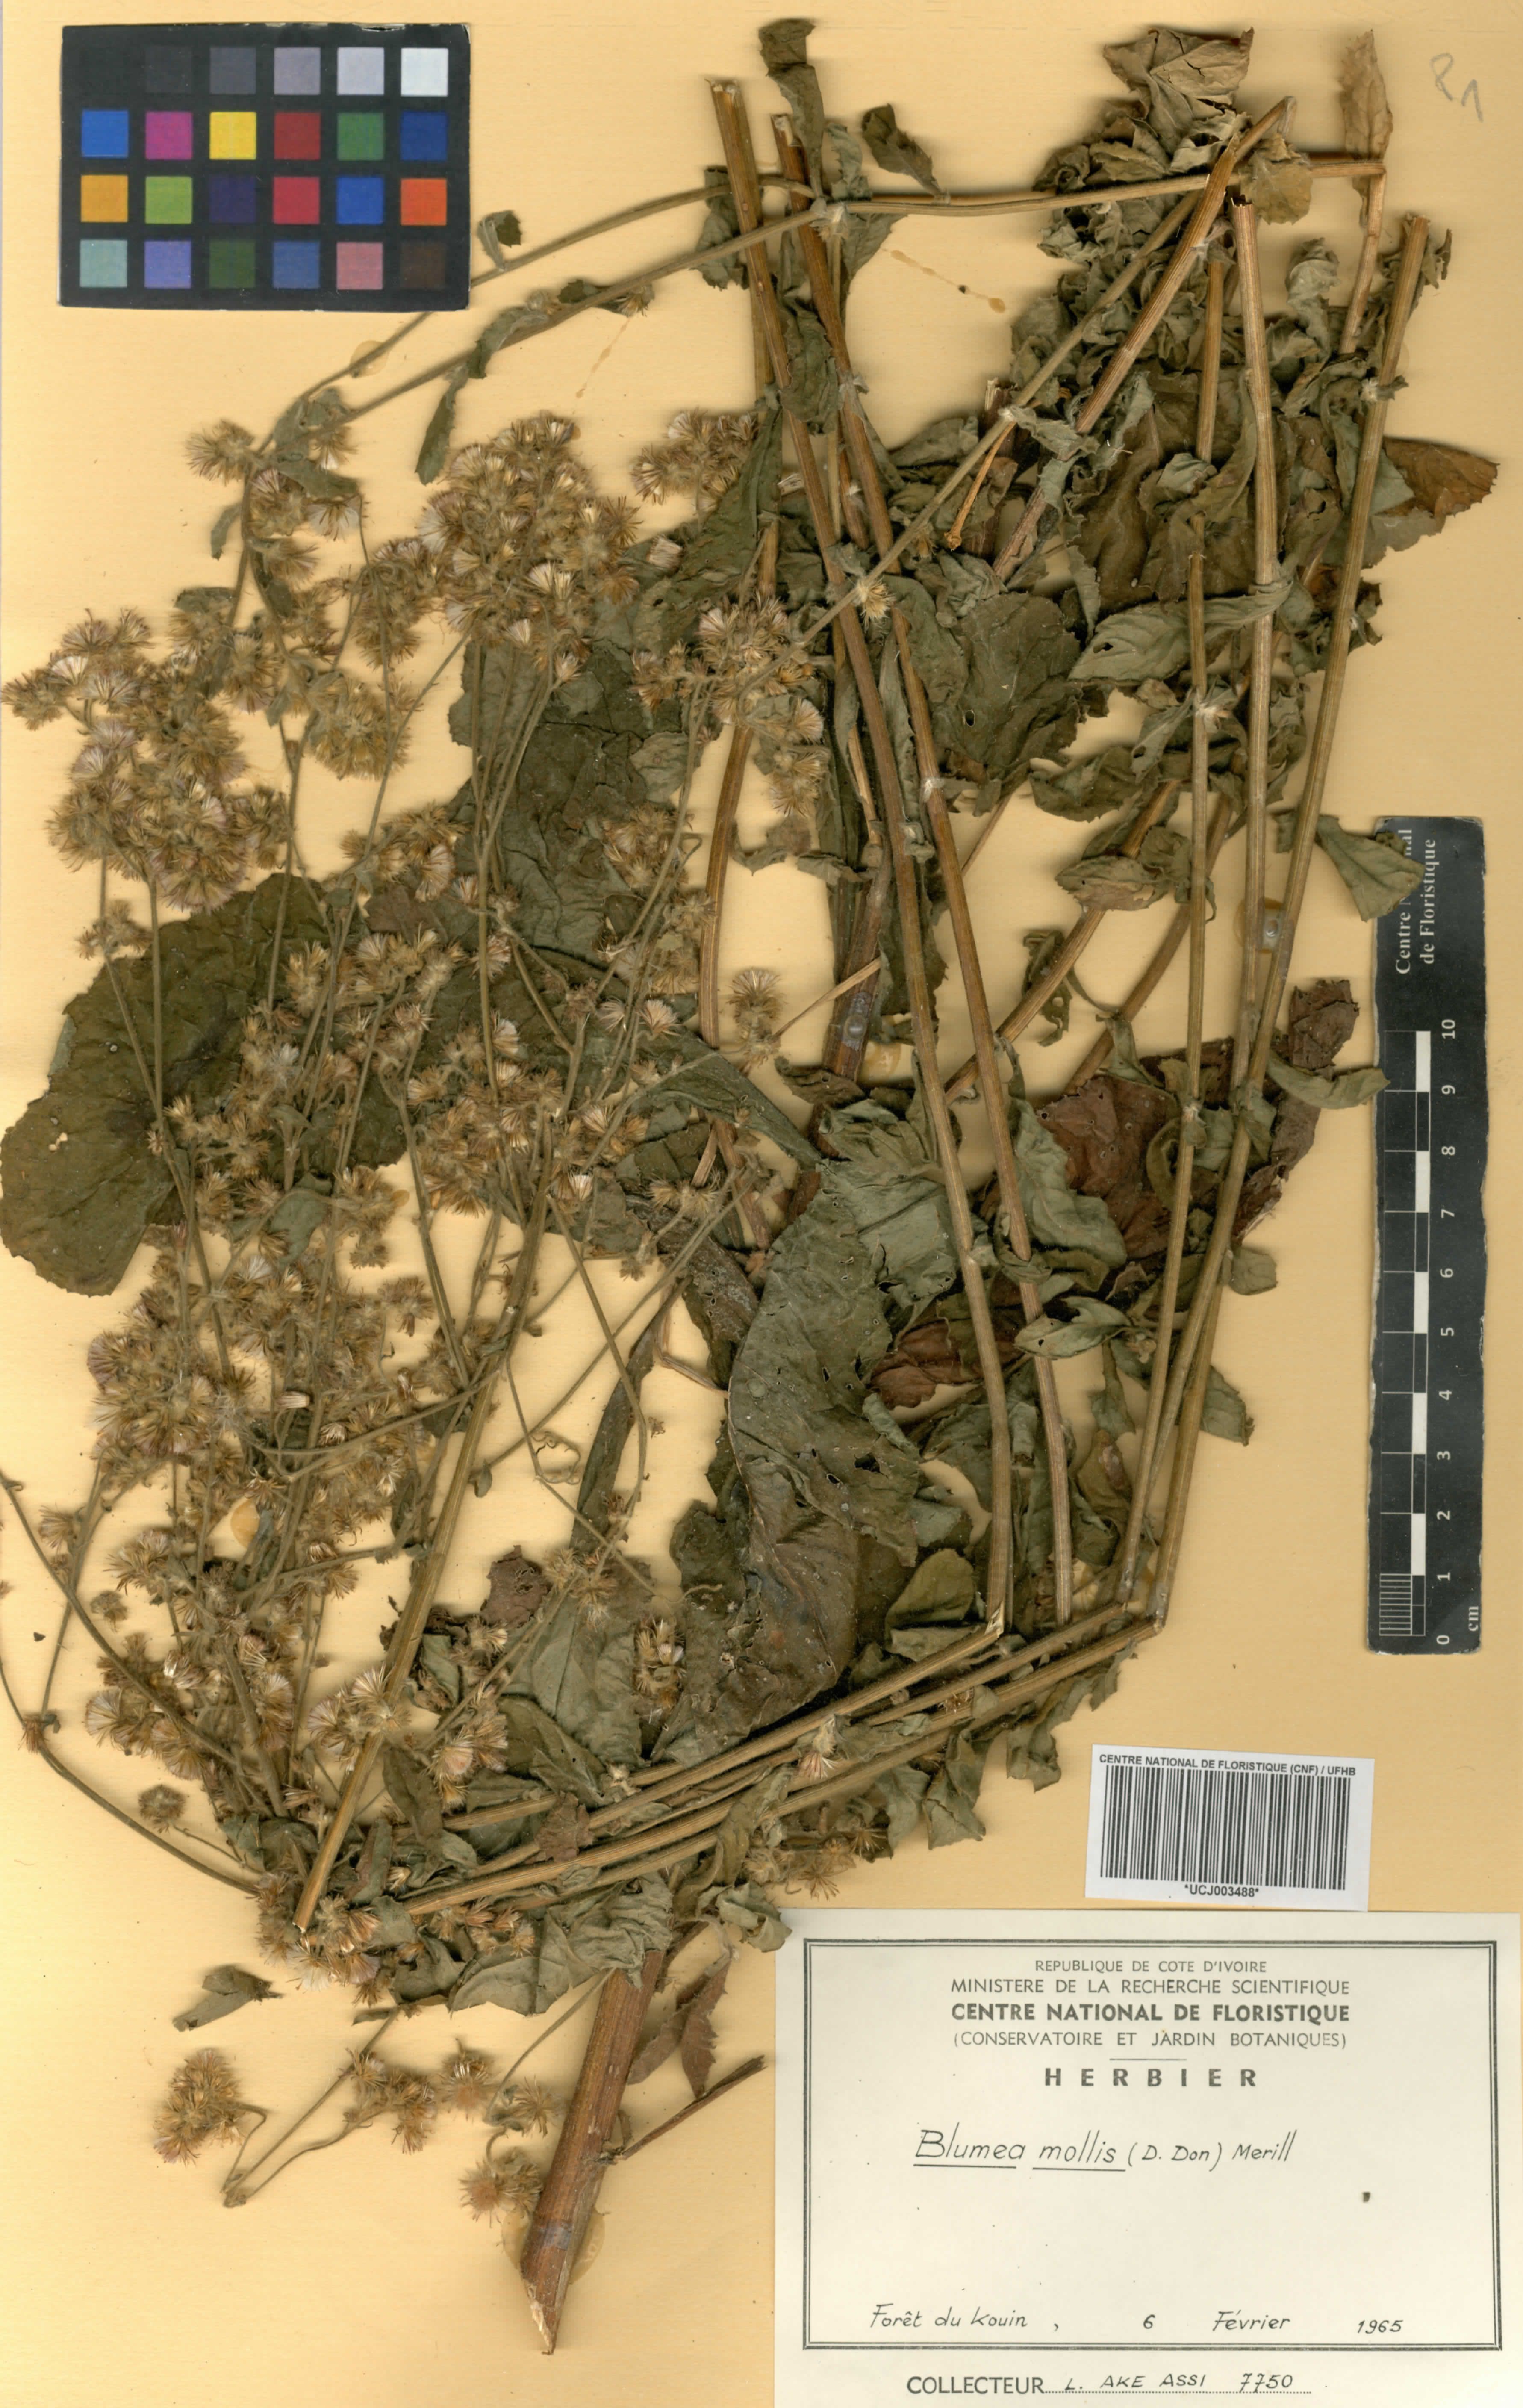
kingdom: Plantae
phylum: Tracheophyta
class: Magnoliopsida
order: Asterales
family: Asteraceae
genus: Blumea
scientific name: Blumea axillaris
